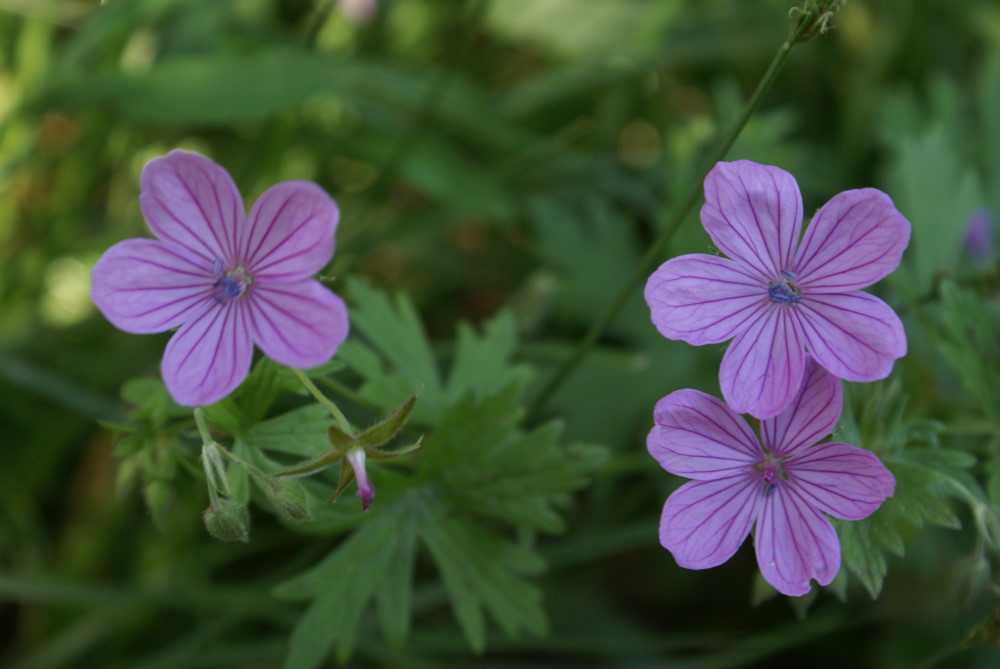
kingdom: Plantae
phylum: Tracheophyta
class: Magnoliopsida
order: Geraniales
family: Geraniaceae
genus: Geranium
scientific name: Geranium asphodeloides
